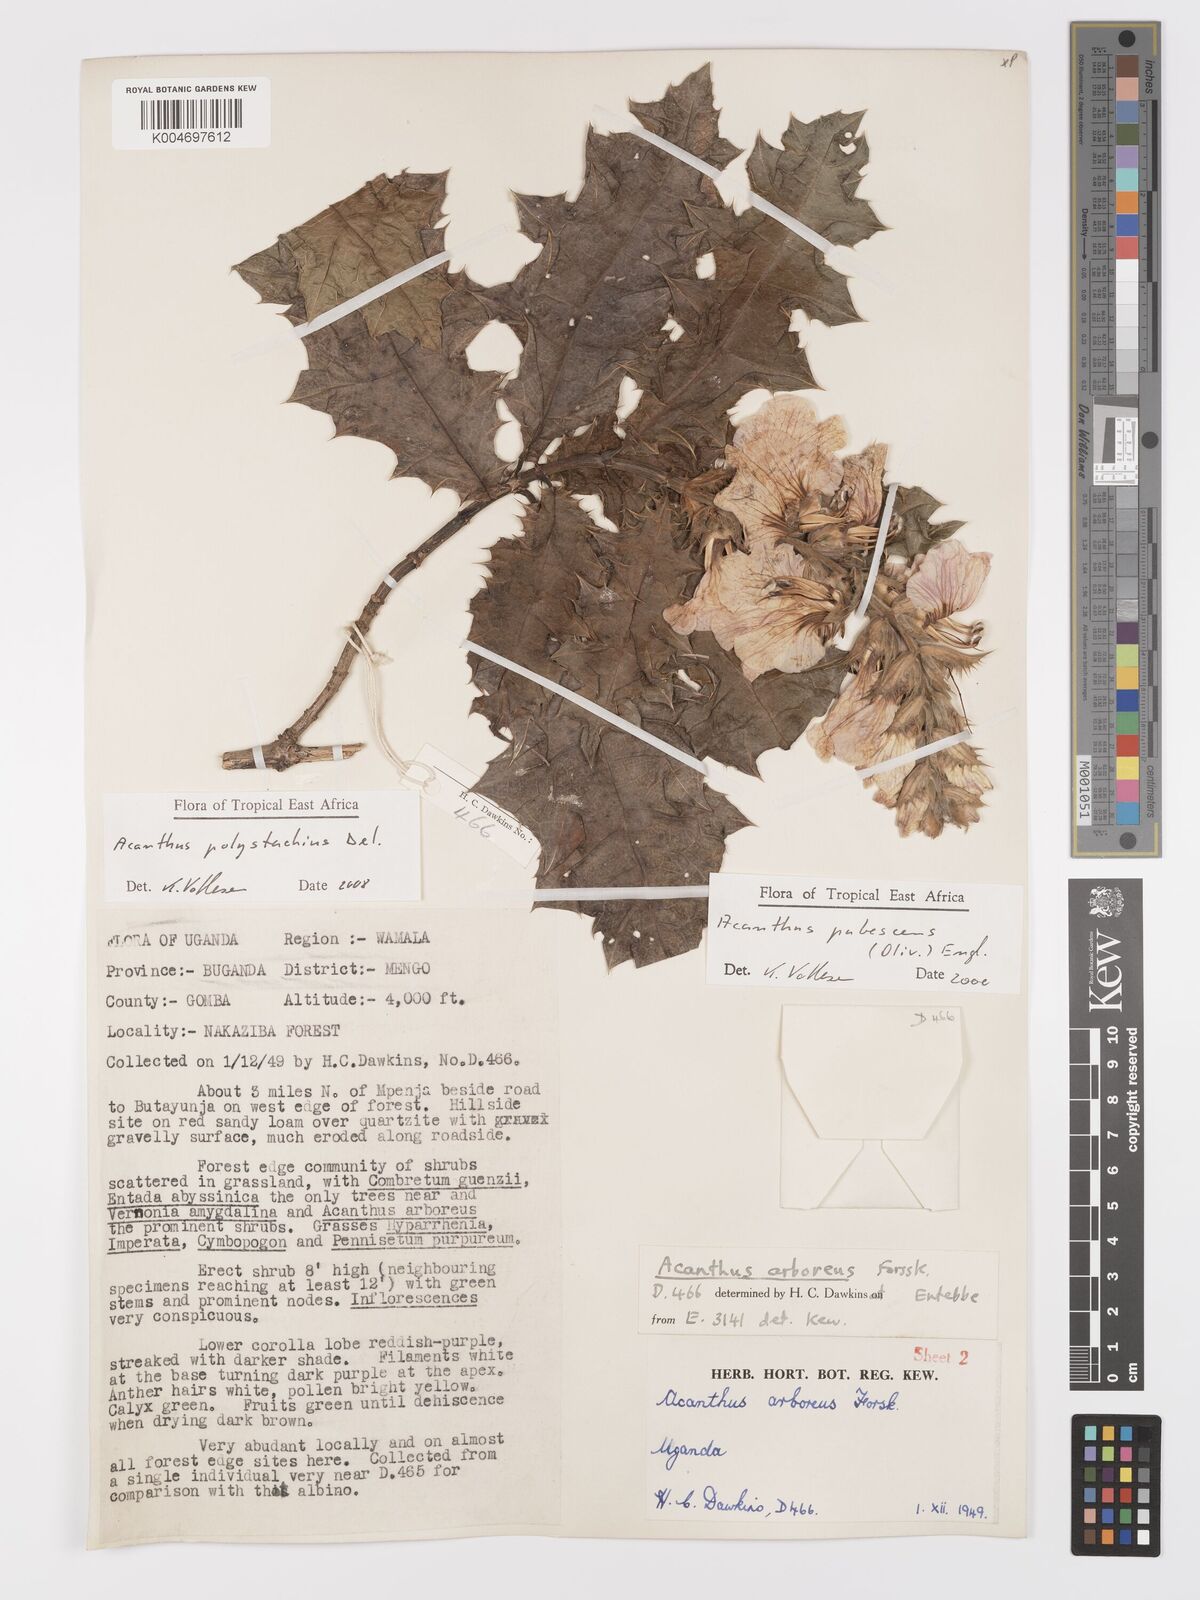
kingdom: Plantae
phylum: Tracheophyta
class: Magnoliopsida
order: Lamiales
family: Acanthaceae
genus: Acanthus
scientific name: Acanthus polystachyus
